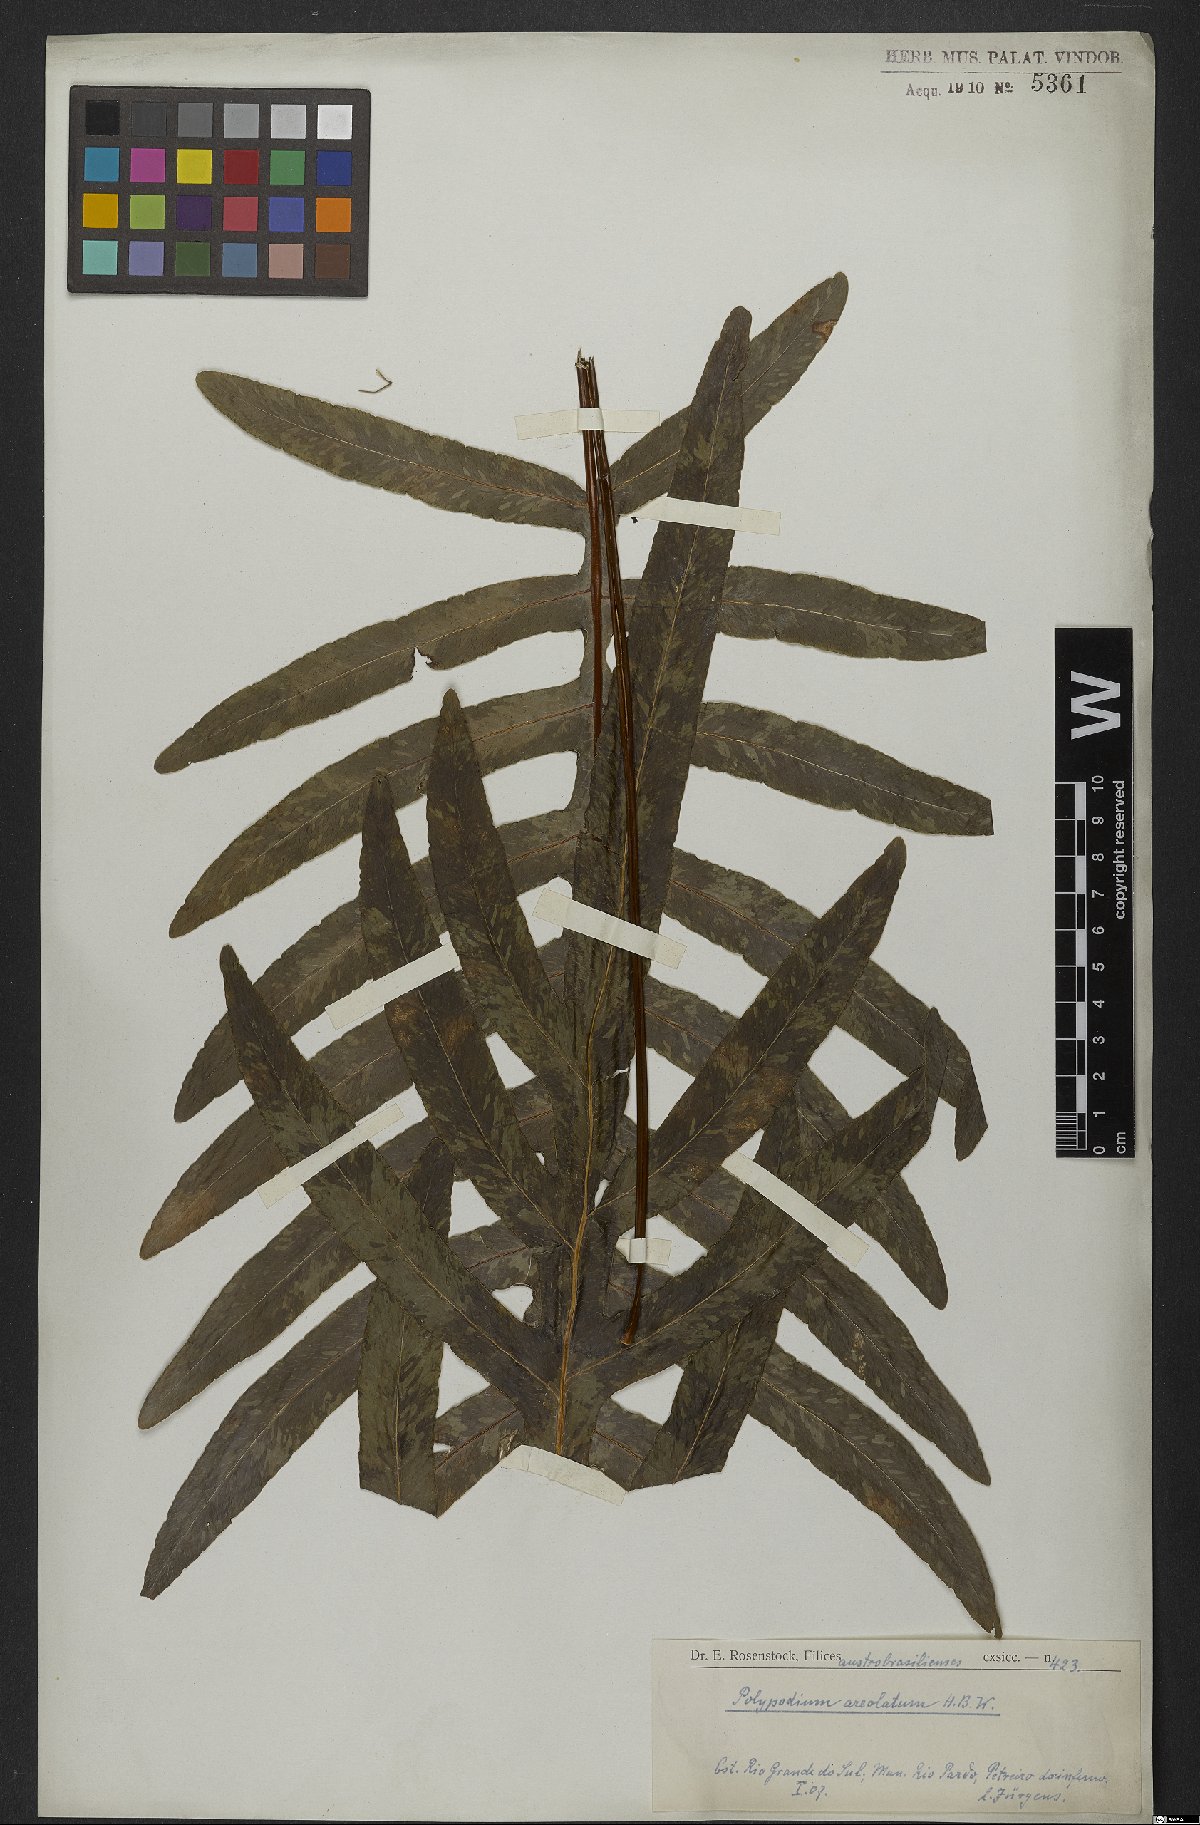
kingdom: Plantae
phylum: Tracheophyta
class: Polypodiopsida
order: Polypodiales
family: Polypodiaceae
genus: Phlebodium
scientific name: Phlebodium aureum
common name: Gold-foot fern
